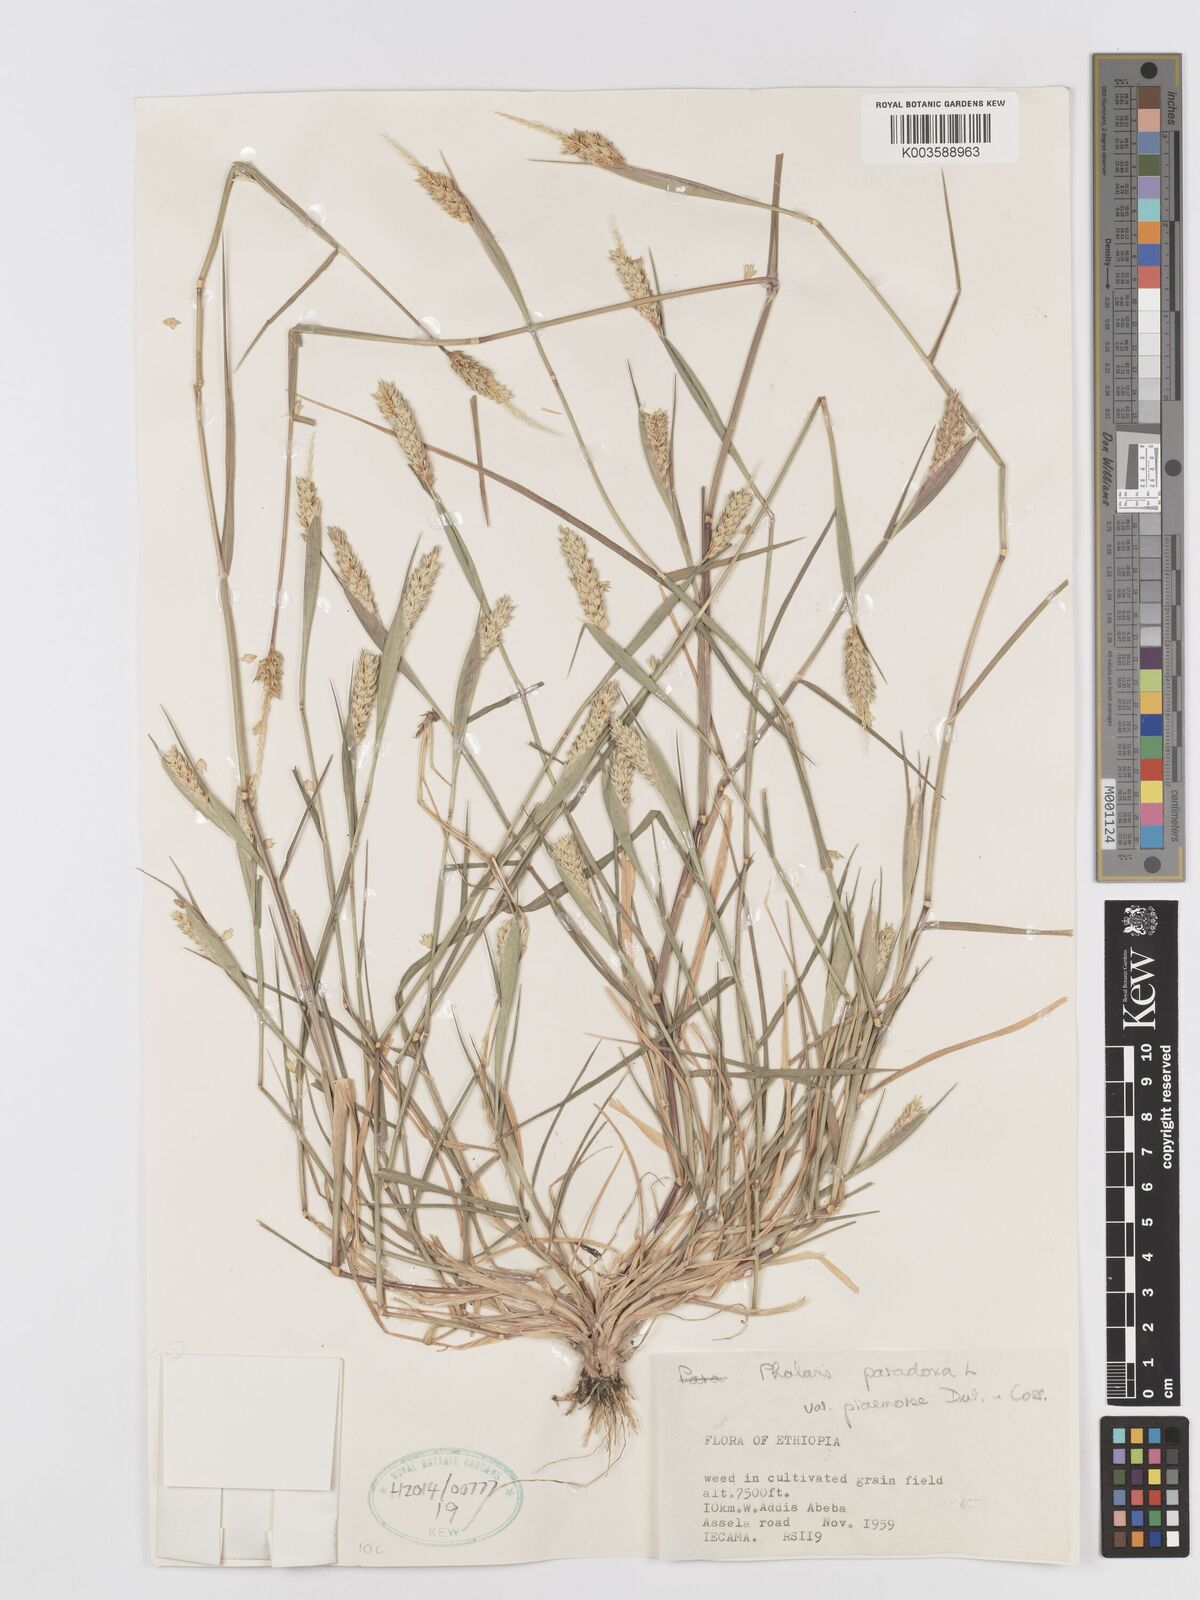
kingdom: Plantae
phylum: Tracheophyta
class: Liliopsida
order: Poales
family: Poaceae
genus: Phalaris
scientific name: Phalaris paradoxa
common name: Awned canary-grass
